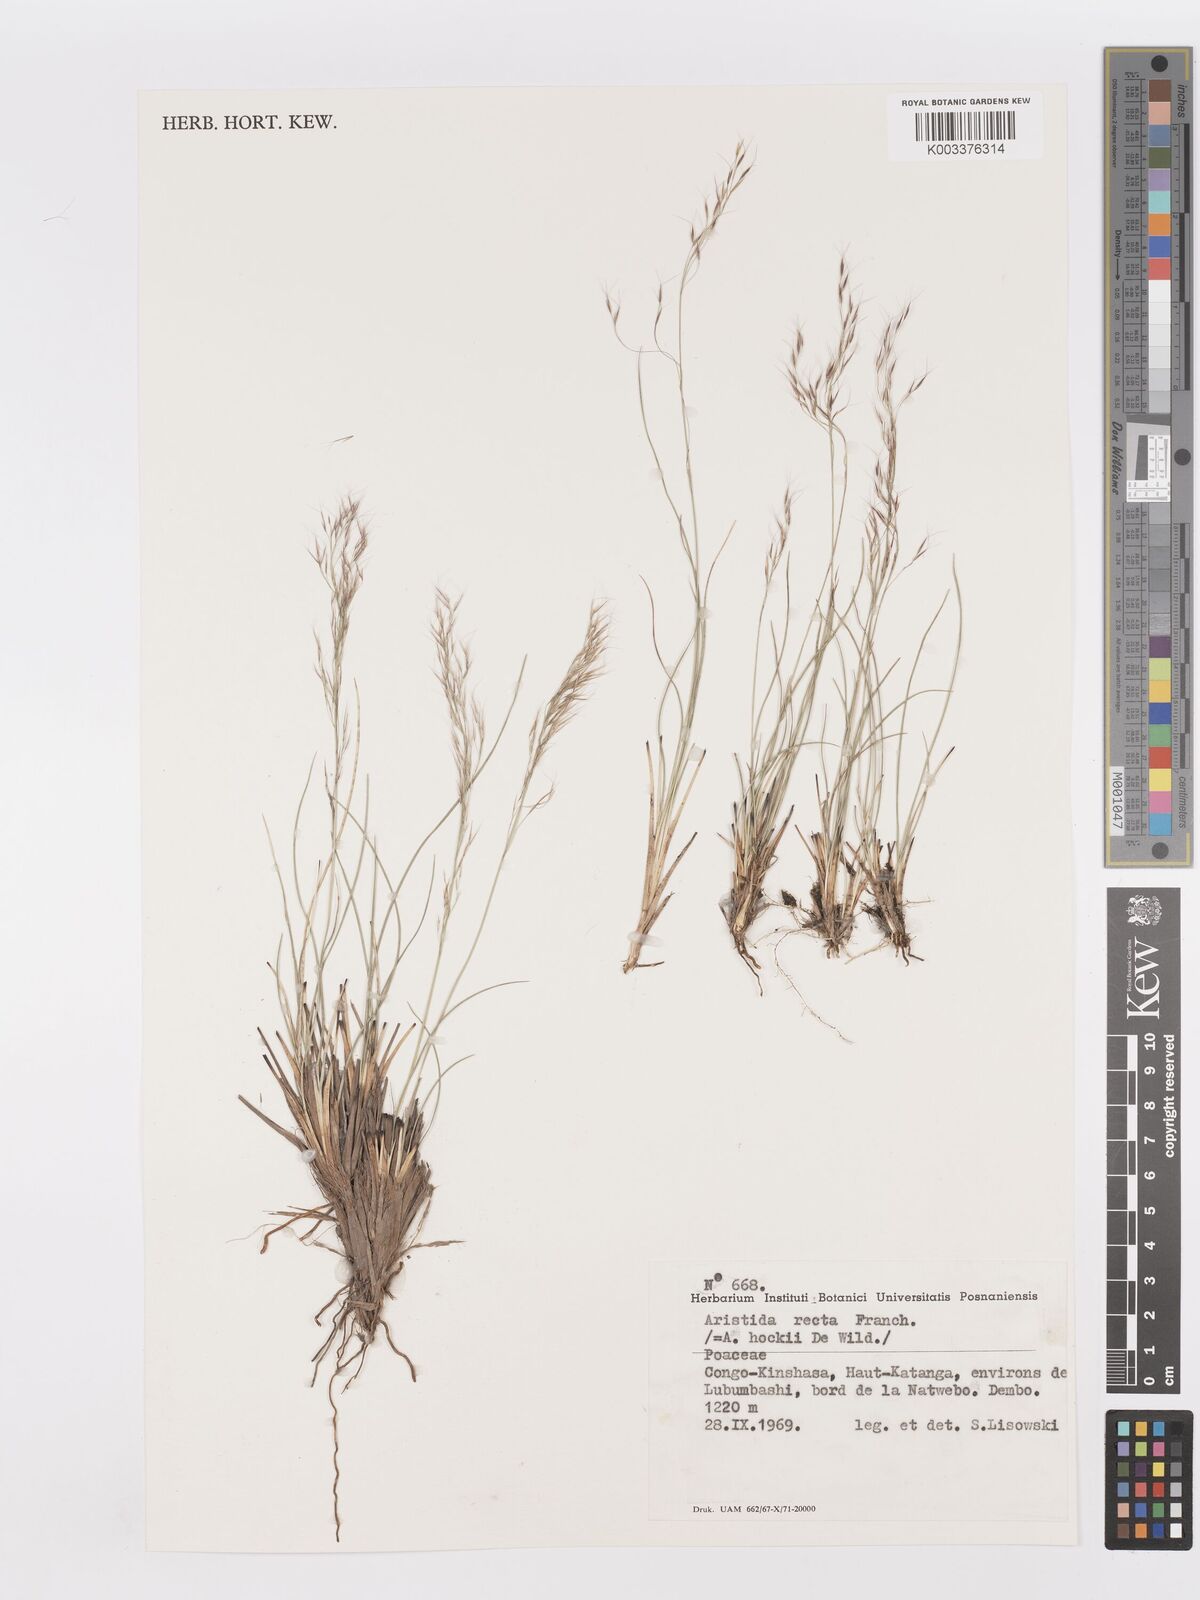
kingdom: Plantae
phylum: Tracheophyta
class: Liliopsida
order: Poales
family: Poaceae
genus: Aristida
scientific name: Aristida recta
